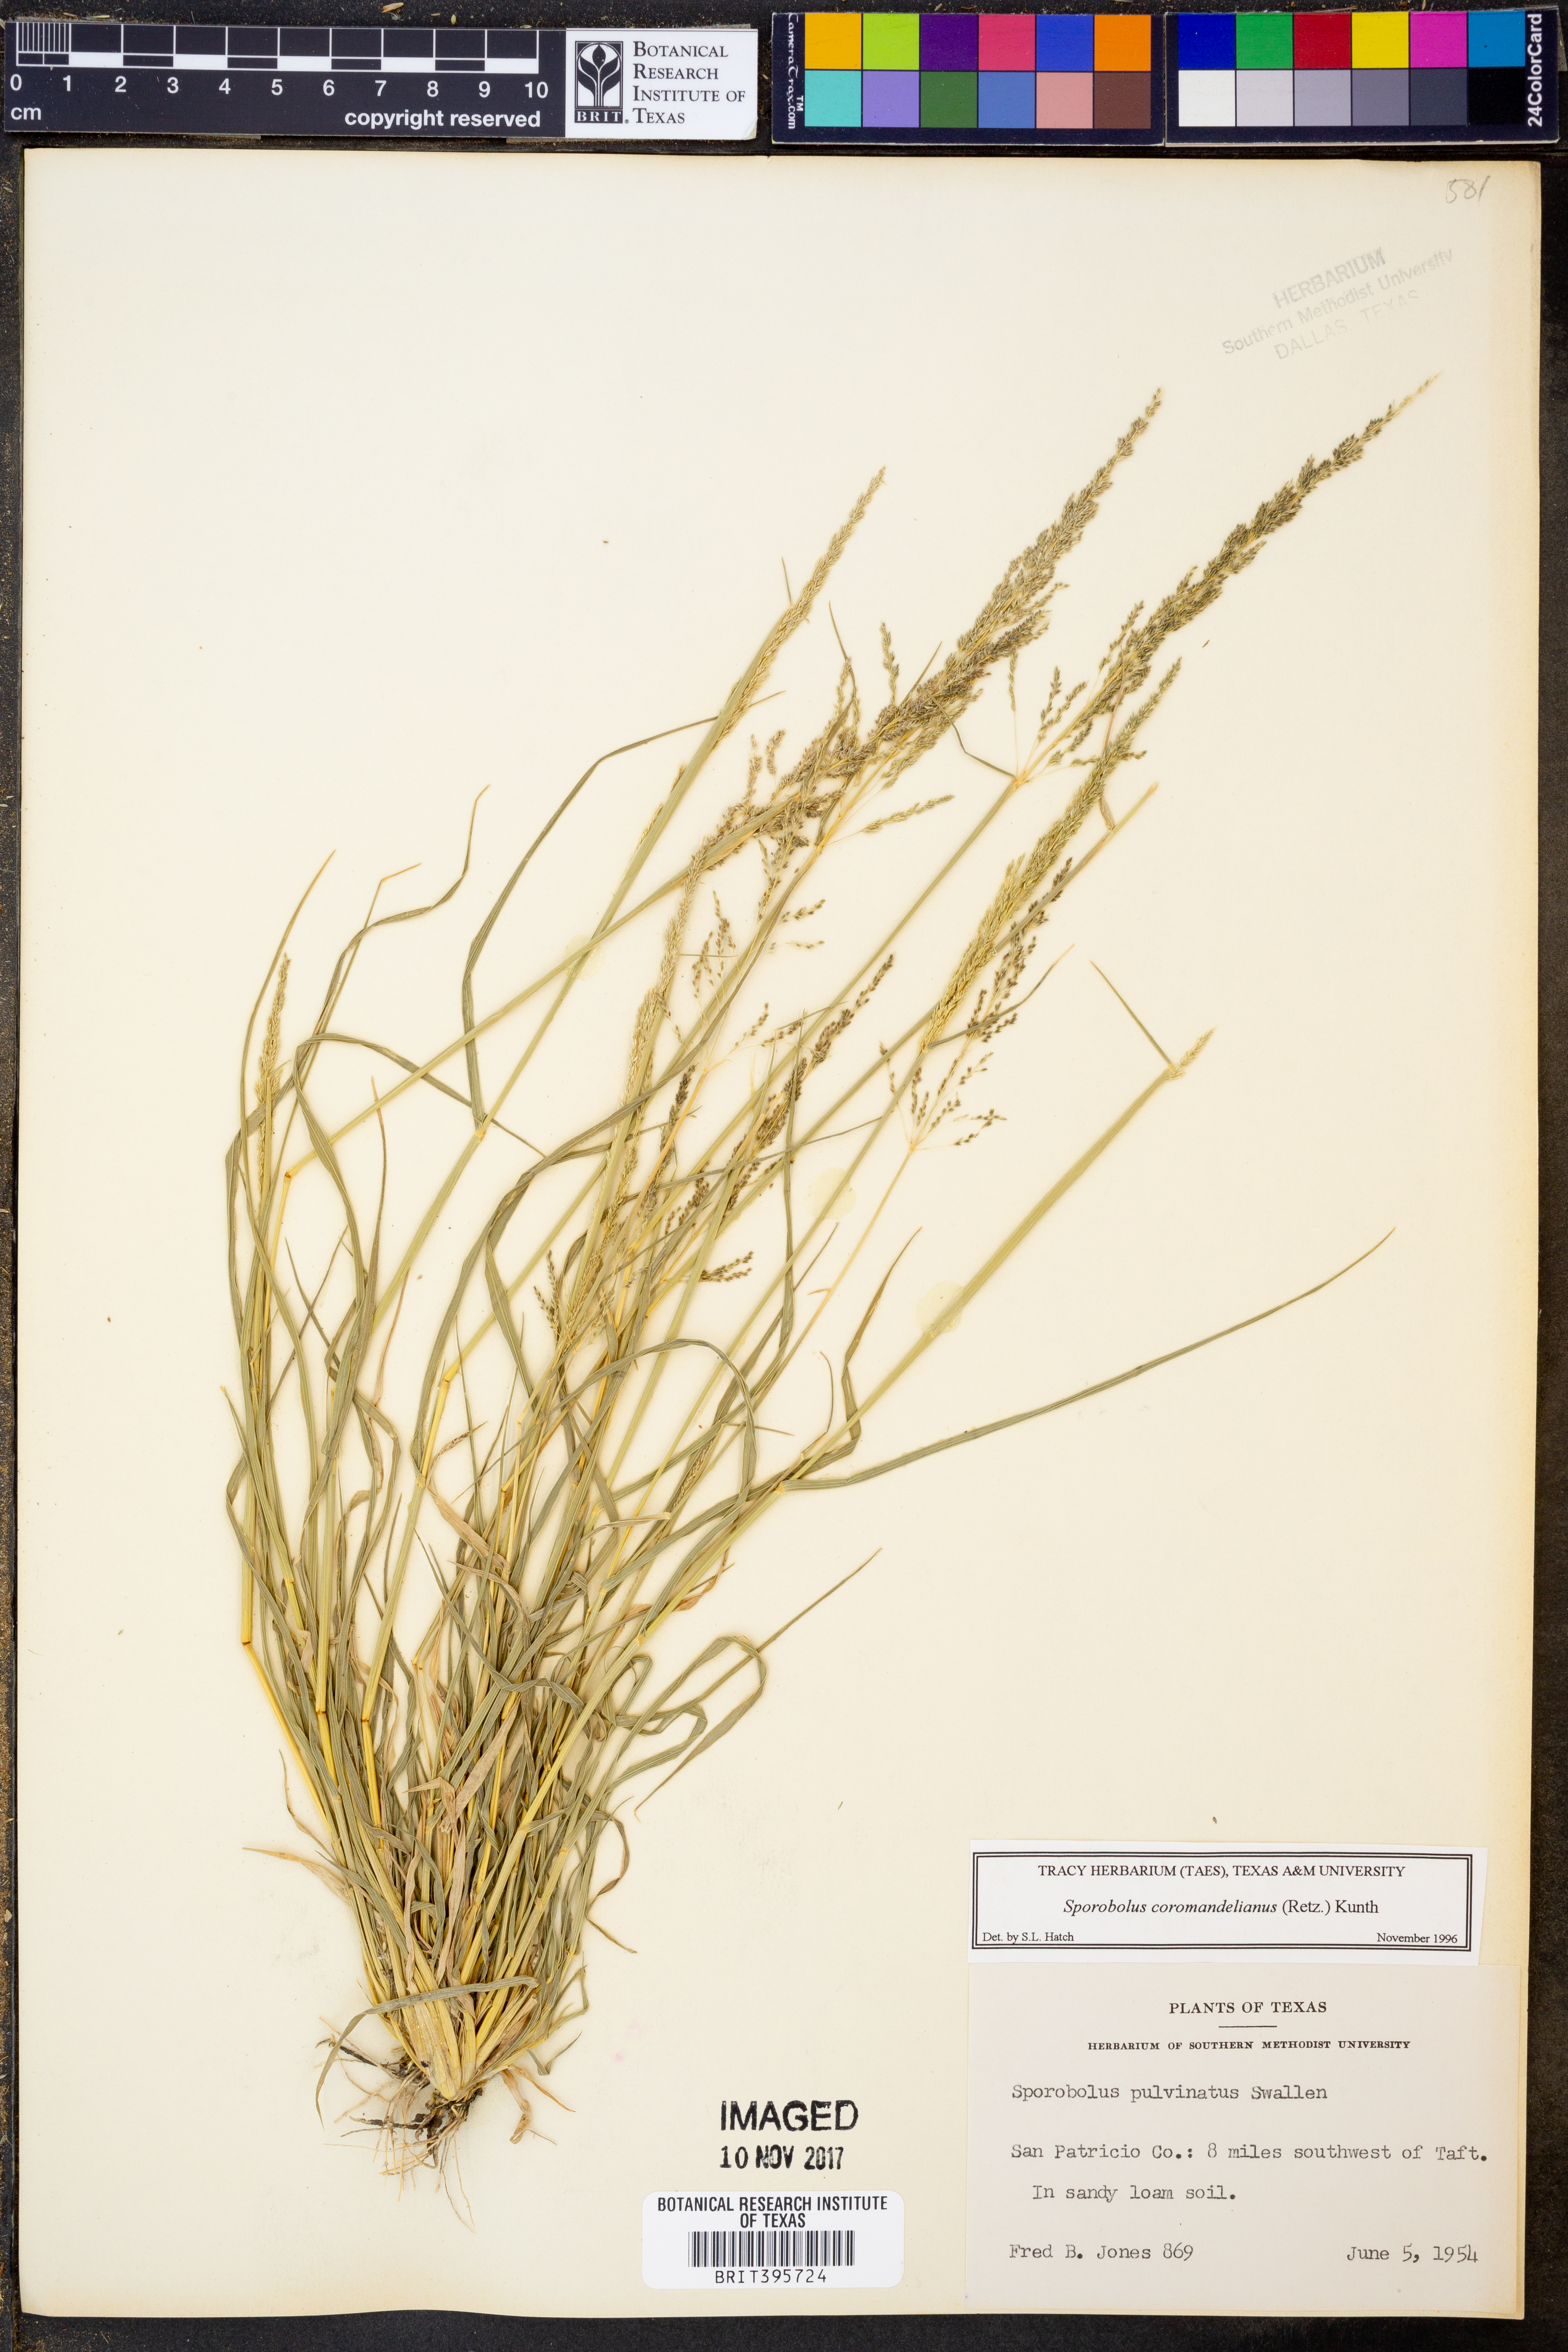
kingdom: Plantae
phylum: Tracheophyta
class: Liliopsida
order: Poales
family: Poaceae
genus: Sporobolus
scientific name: Sporobolus coromandelianus
